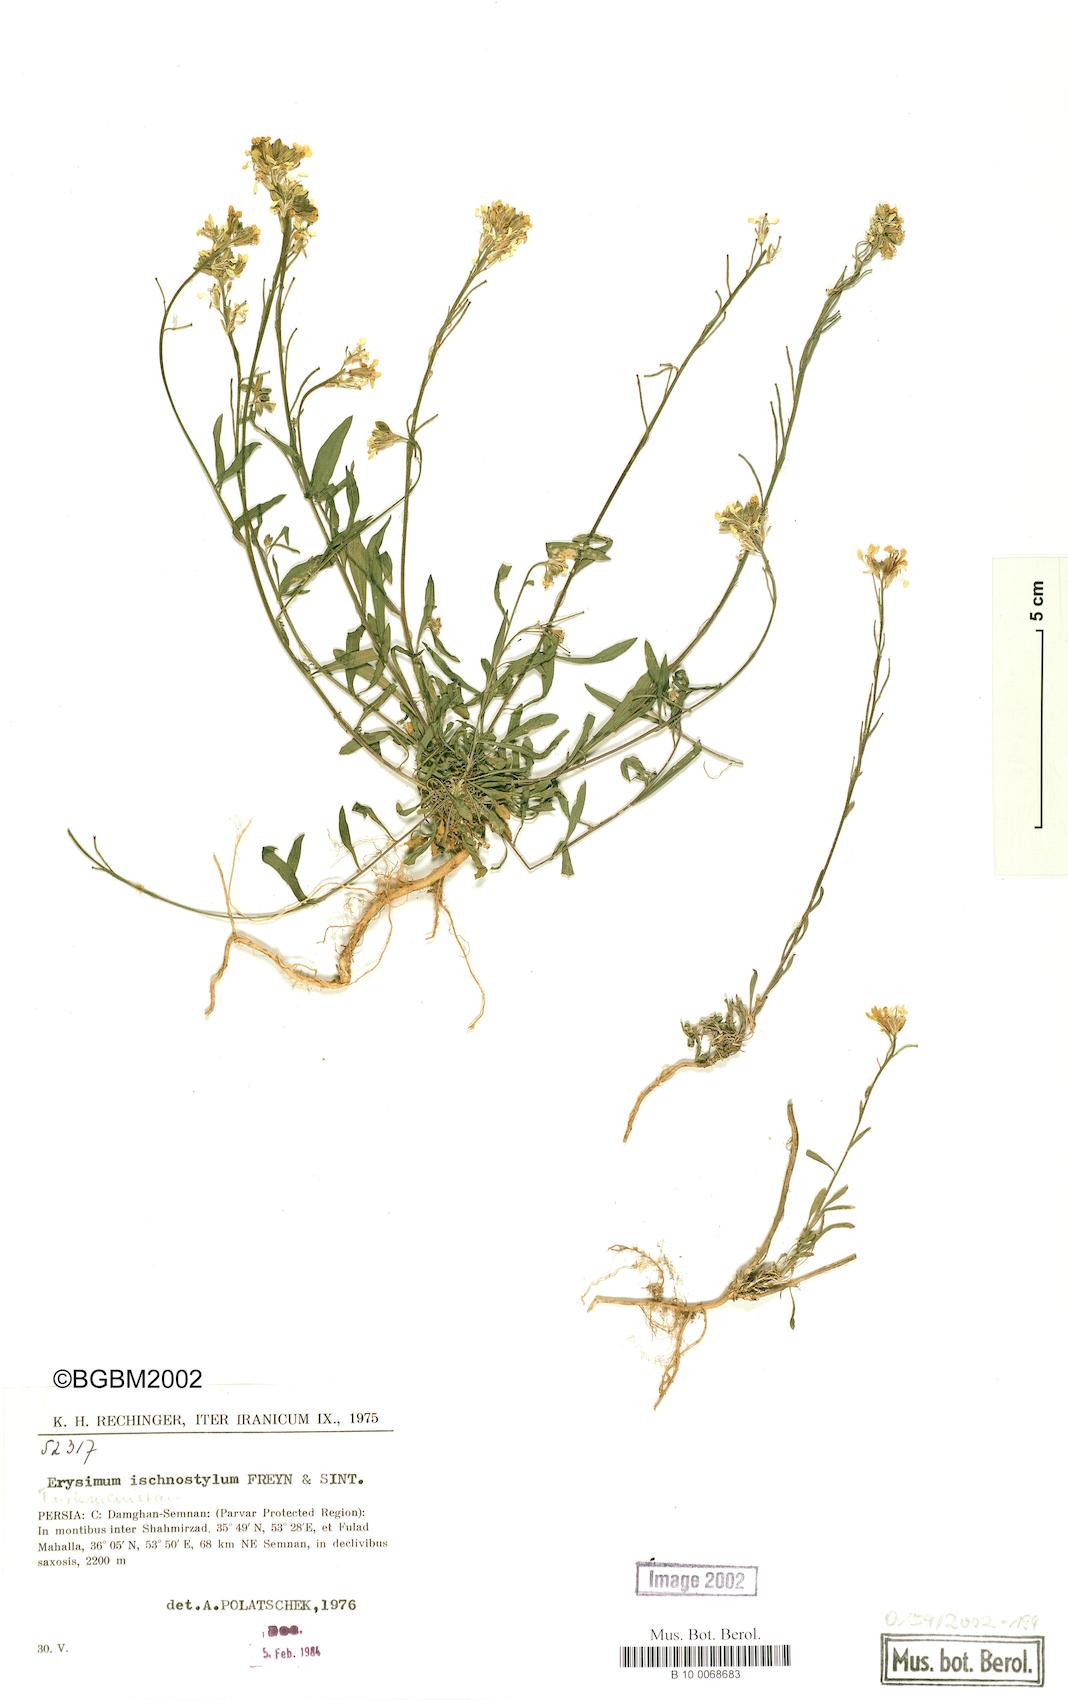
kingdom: Plantae
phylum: Tracheophyta
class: Magnoliopsida
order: Brassicales
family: Brassicaceae
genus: Erysimum
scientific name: Erysimum ischnostylum
